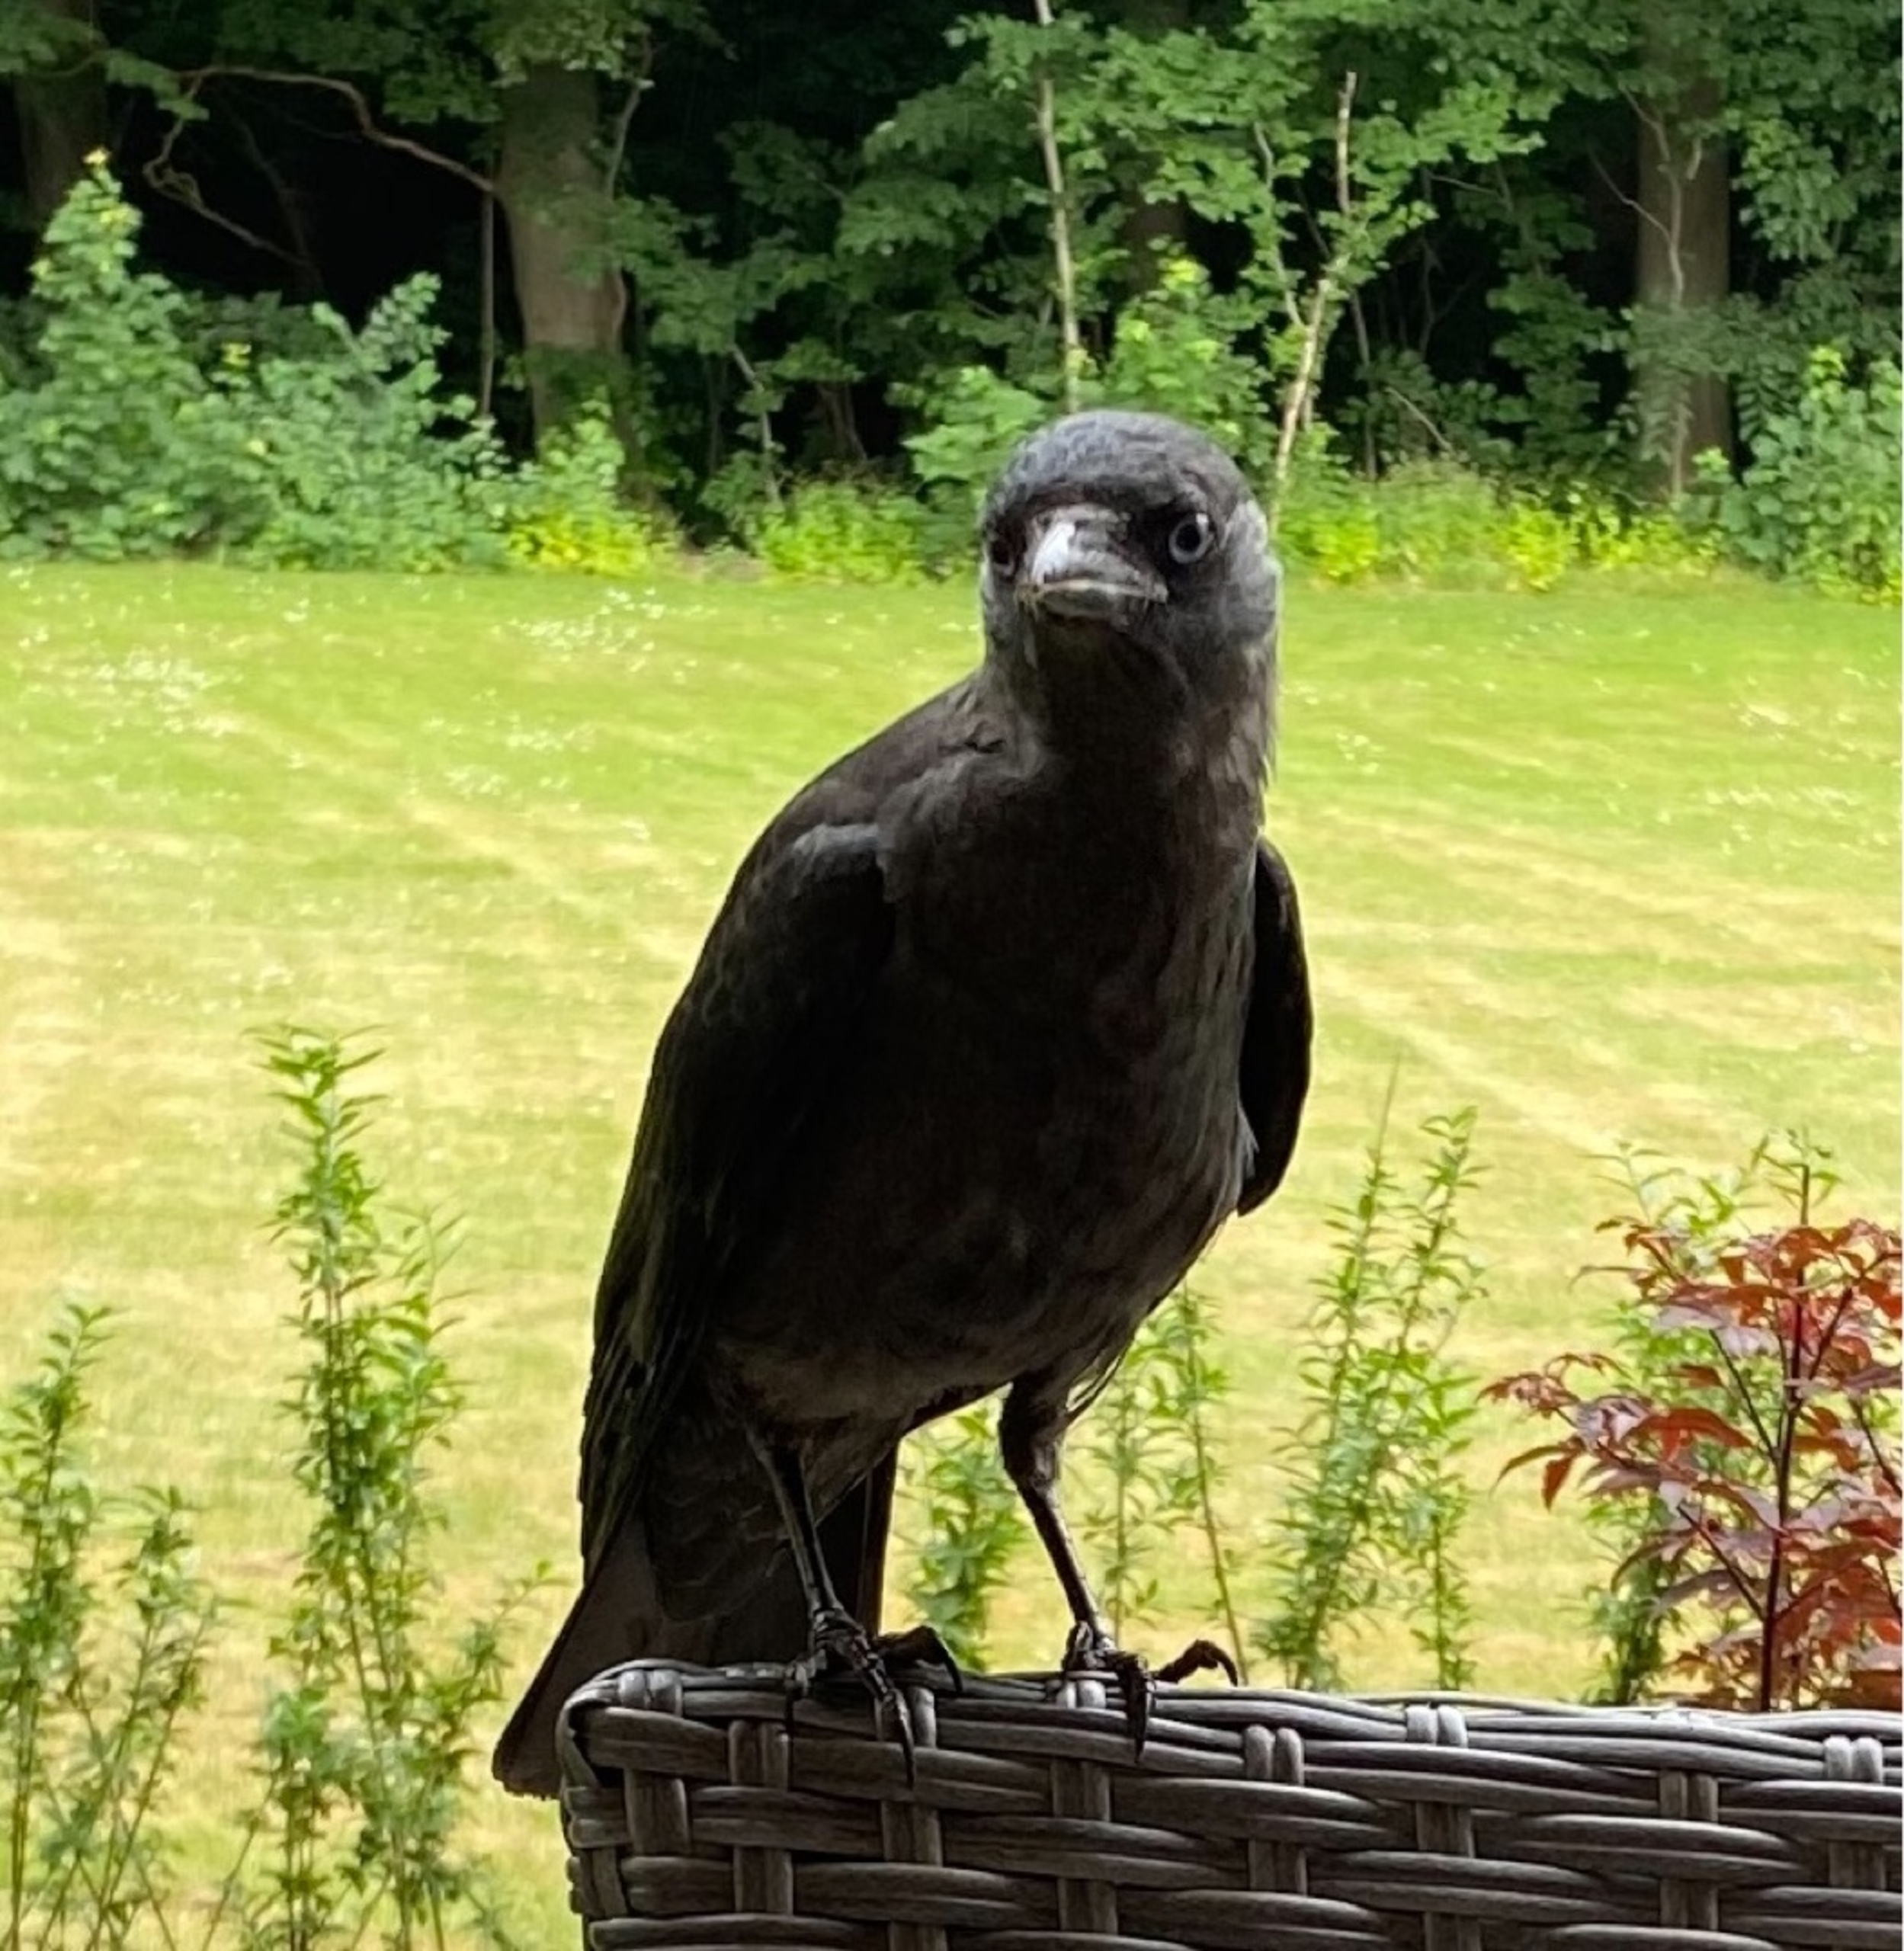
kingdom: Animalia
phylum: Chordata
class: Aves
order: Passeriformes
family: Corvidae
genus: Coloeus
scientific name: Coloeus monedula
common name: Allike
